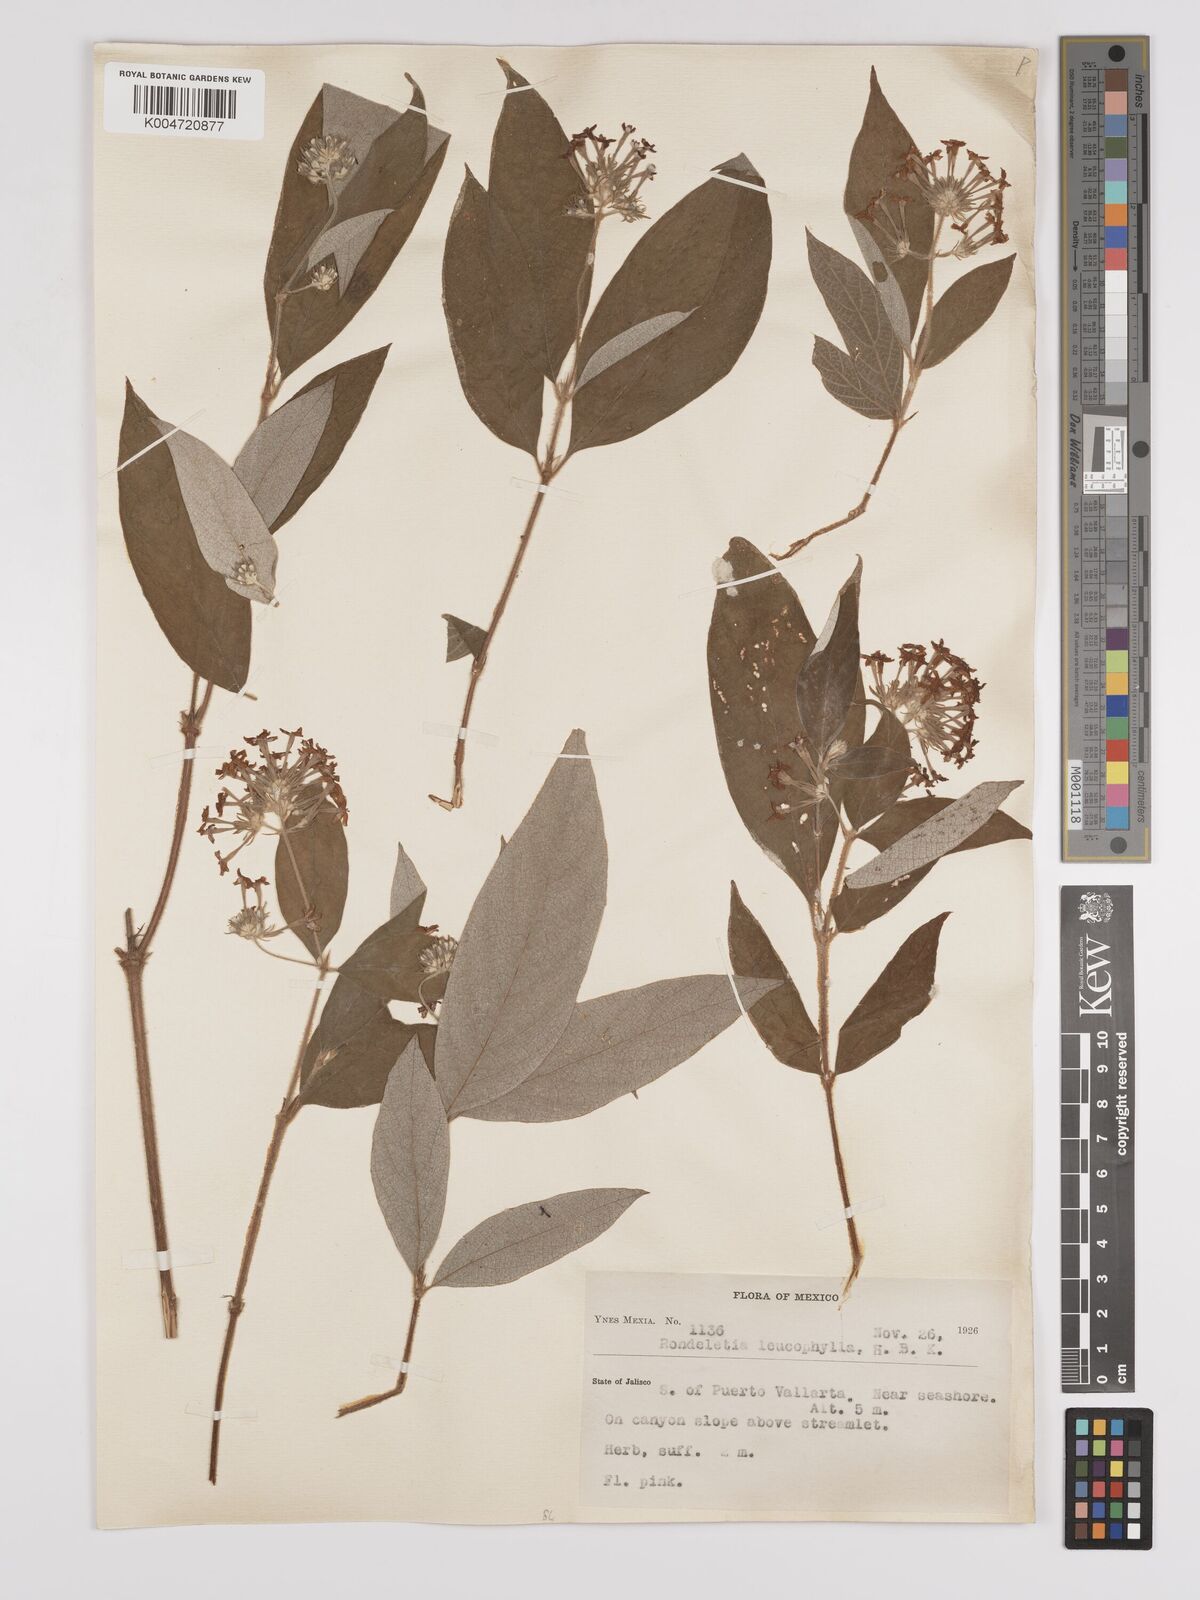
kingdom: Plantae
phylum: Tracheophyta
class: Magnoliopsida
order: Gentianales
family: Rubiaceae
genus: Arachnothryx
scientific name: Arachnothryx leucophylla
